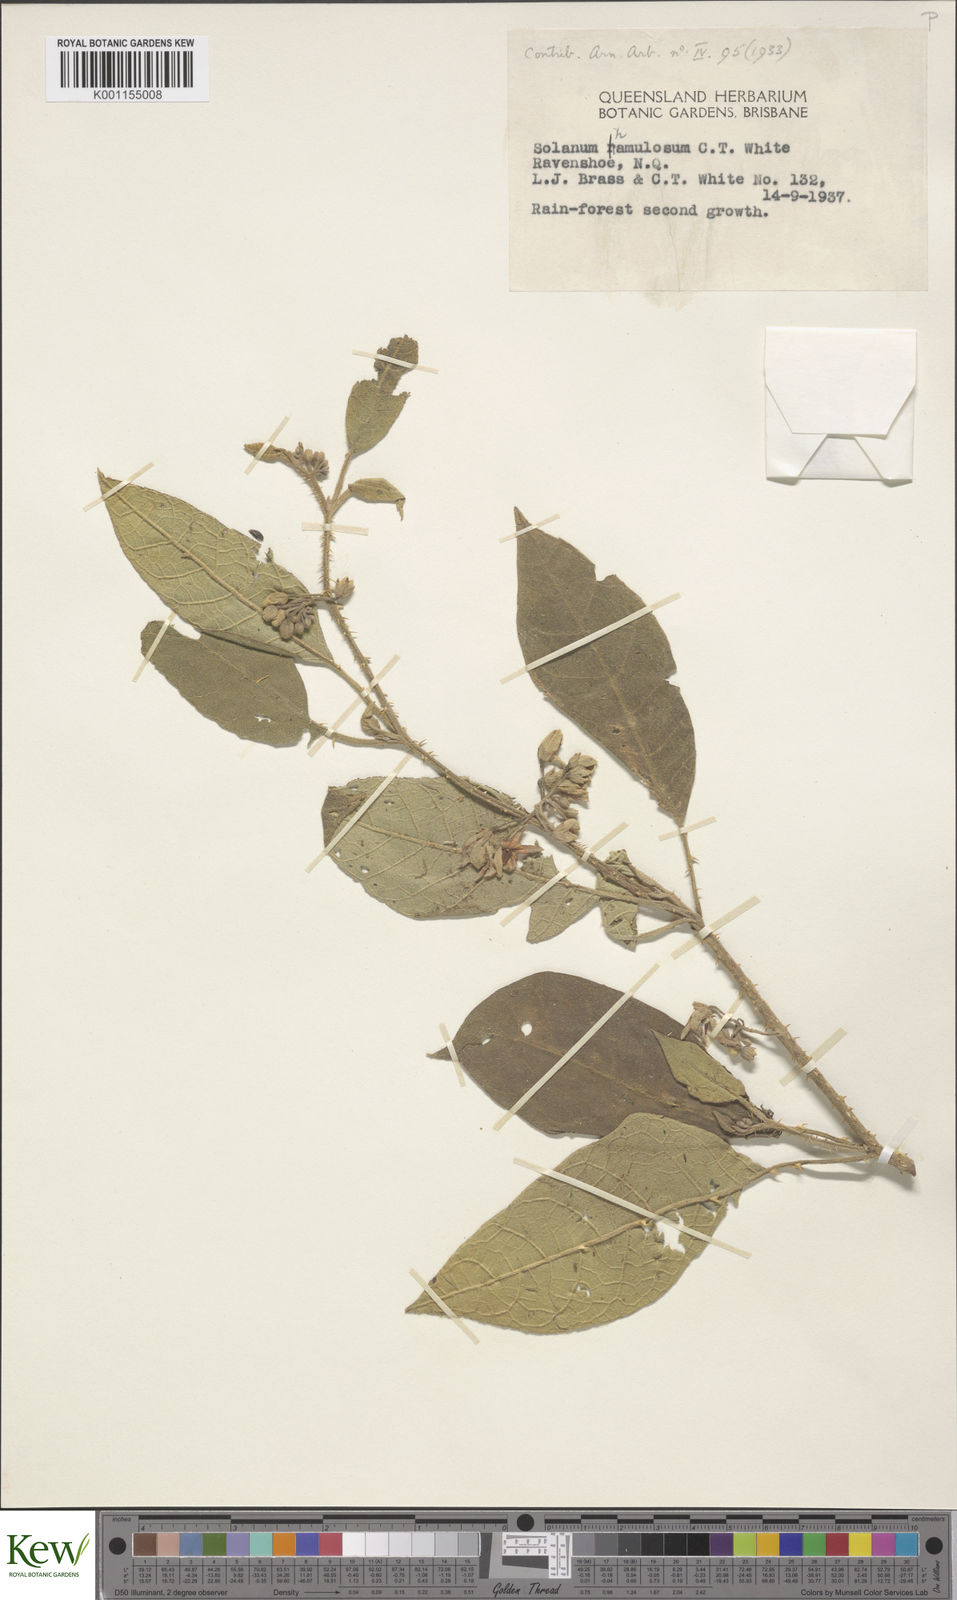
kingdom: Plantae
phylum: Tracheophyta
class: Magnoliopsida
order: Solanales
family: Solanaceae
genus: Solanum
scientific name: Solanum hamulosum
